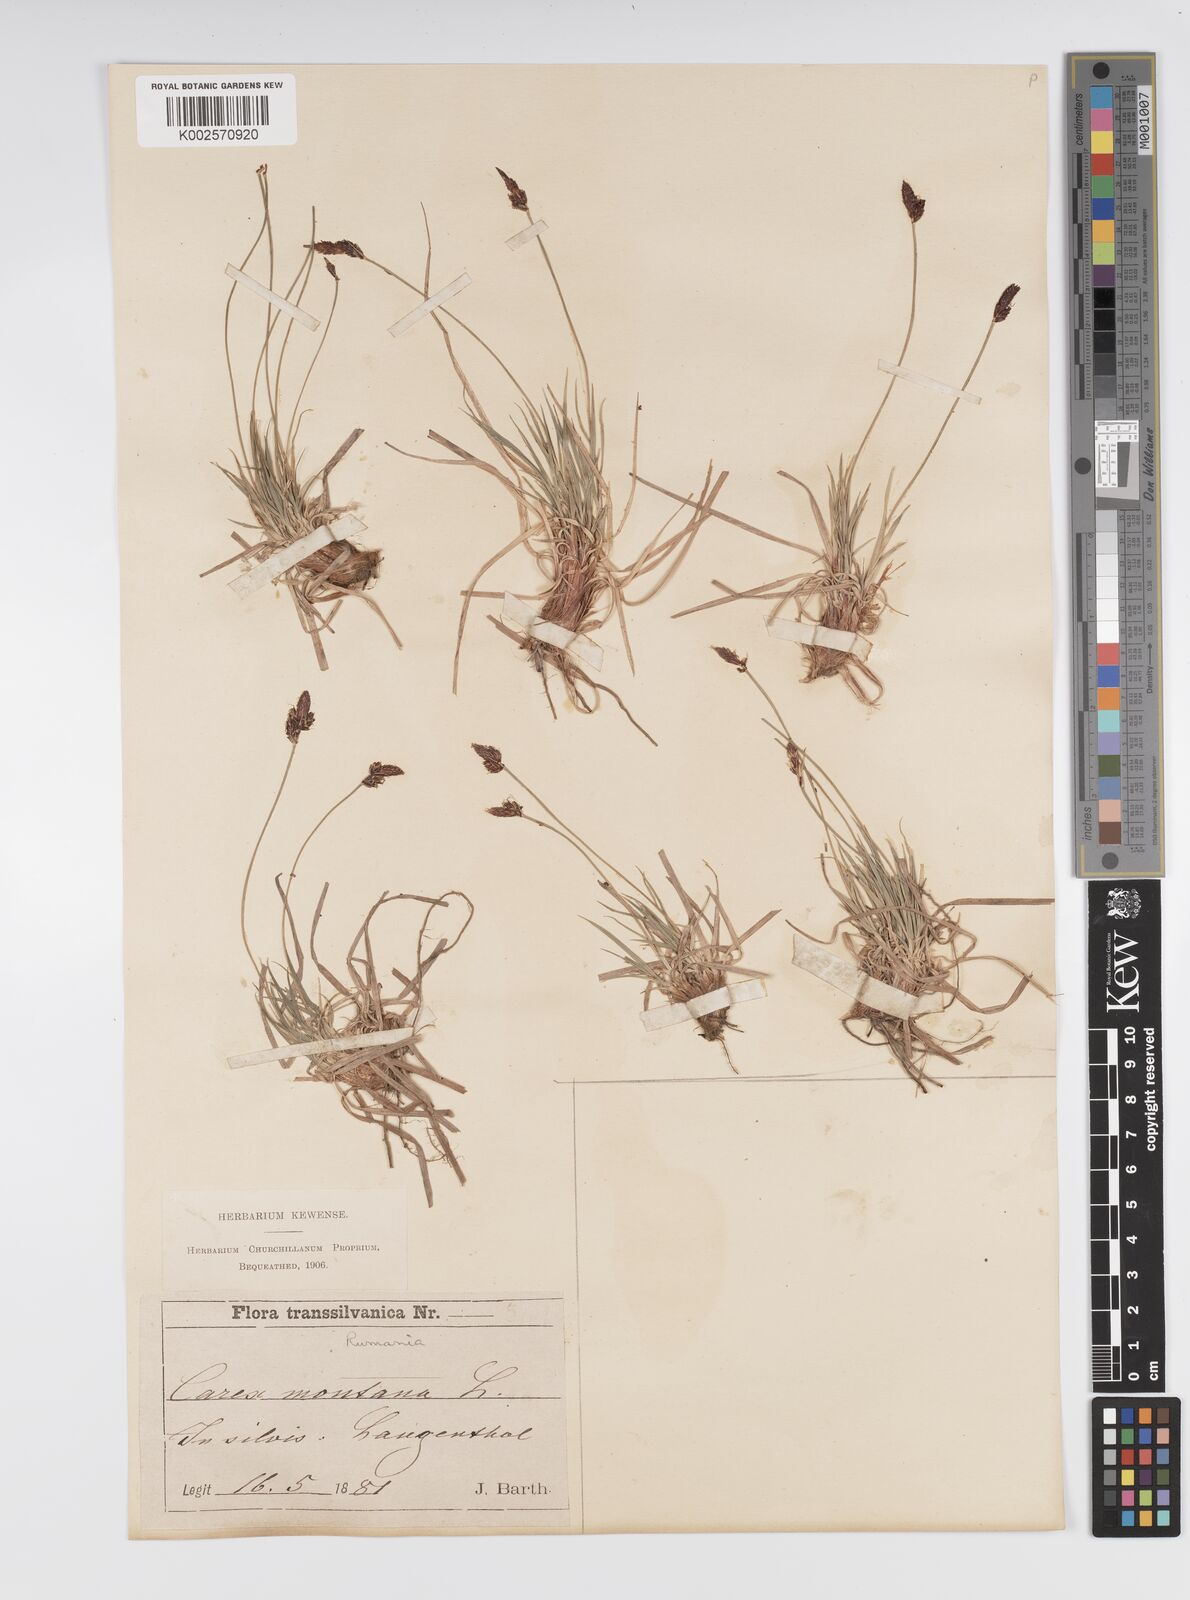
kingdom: Plantae
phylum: Tracheophyta
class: Liliopsida
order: Poales
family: Cyperaceae
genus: Carex
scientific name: Carex montana
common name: Soft-leaved sedge
